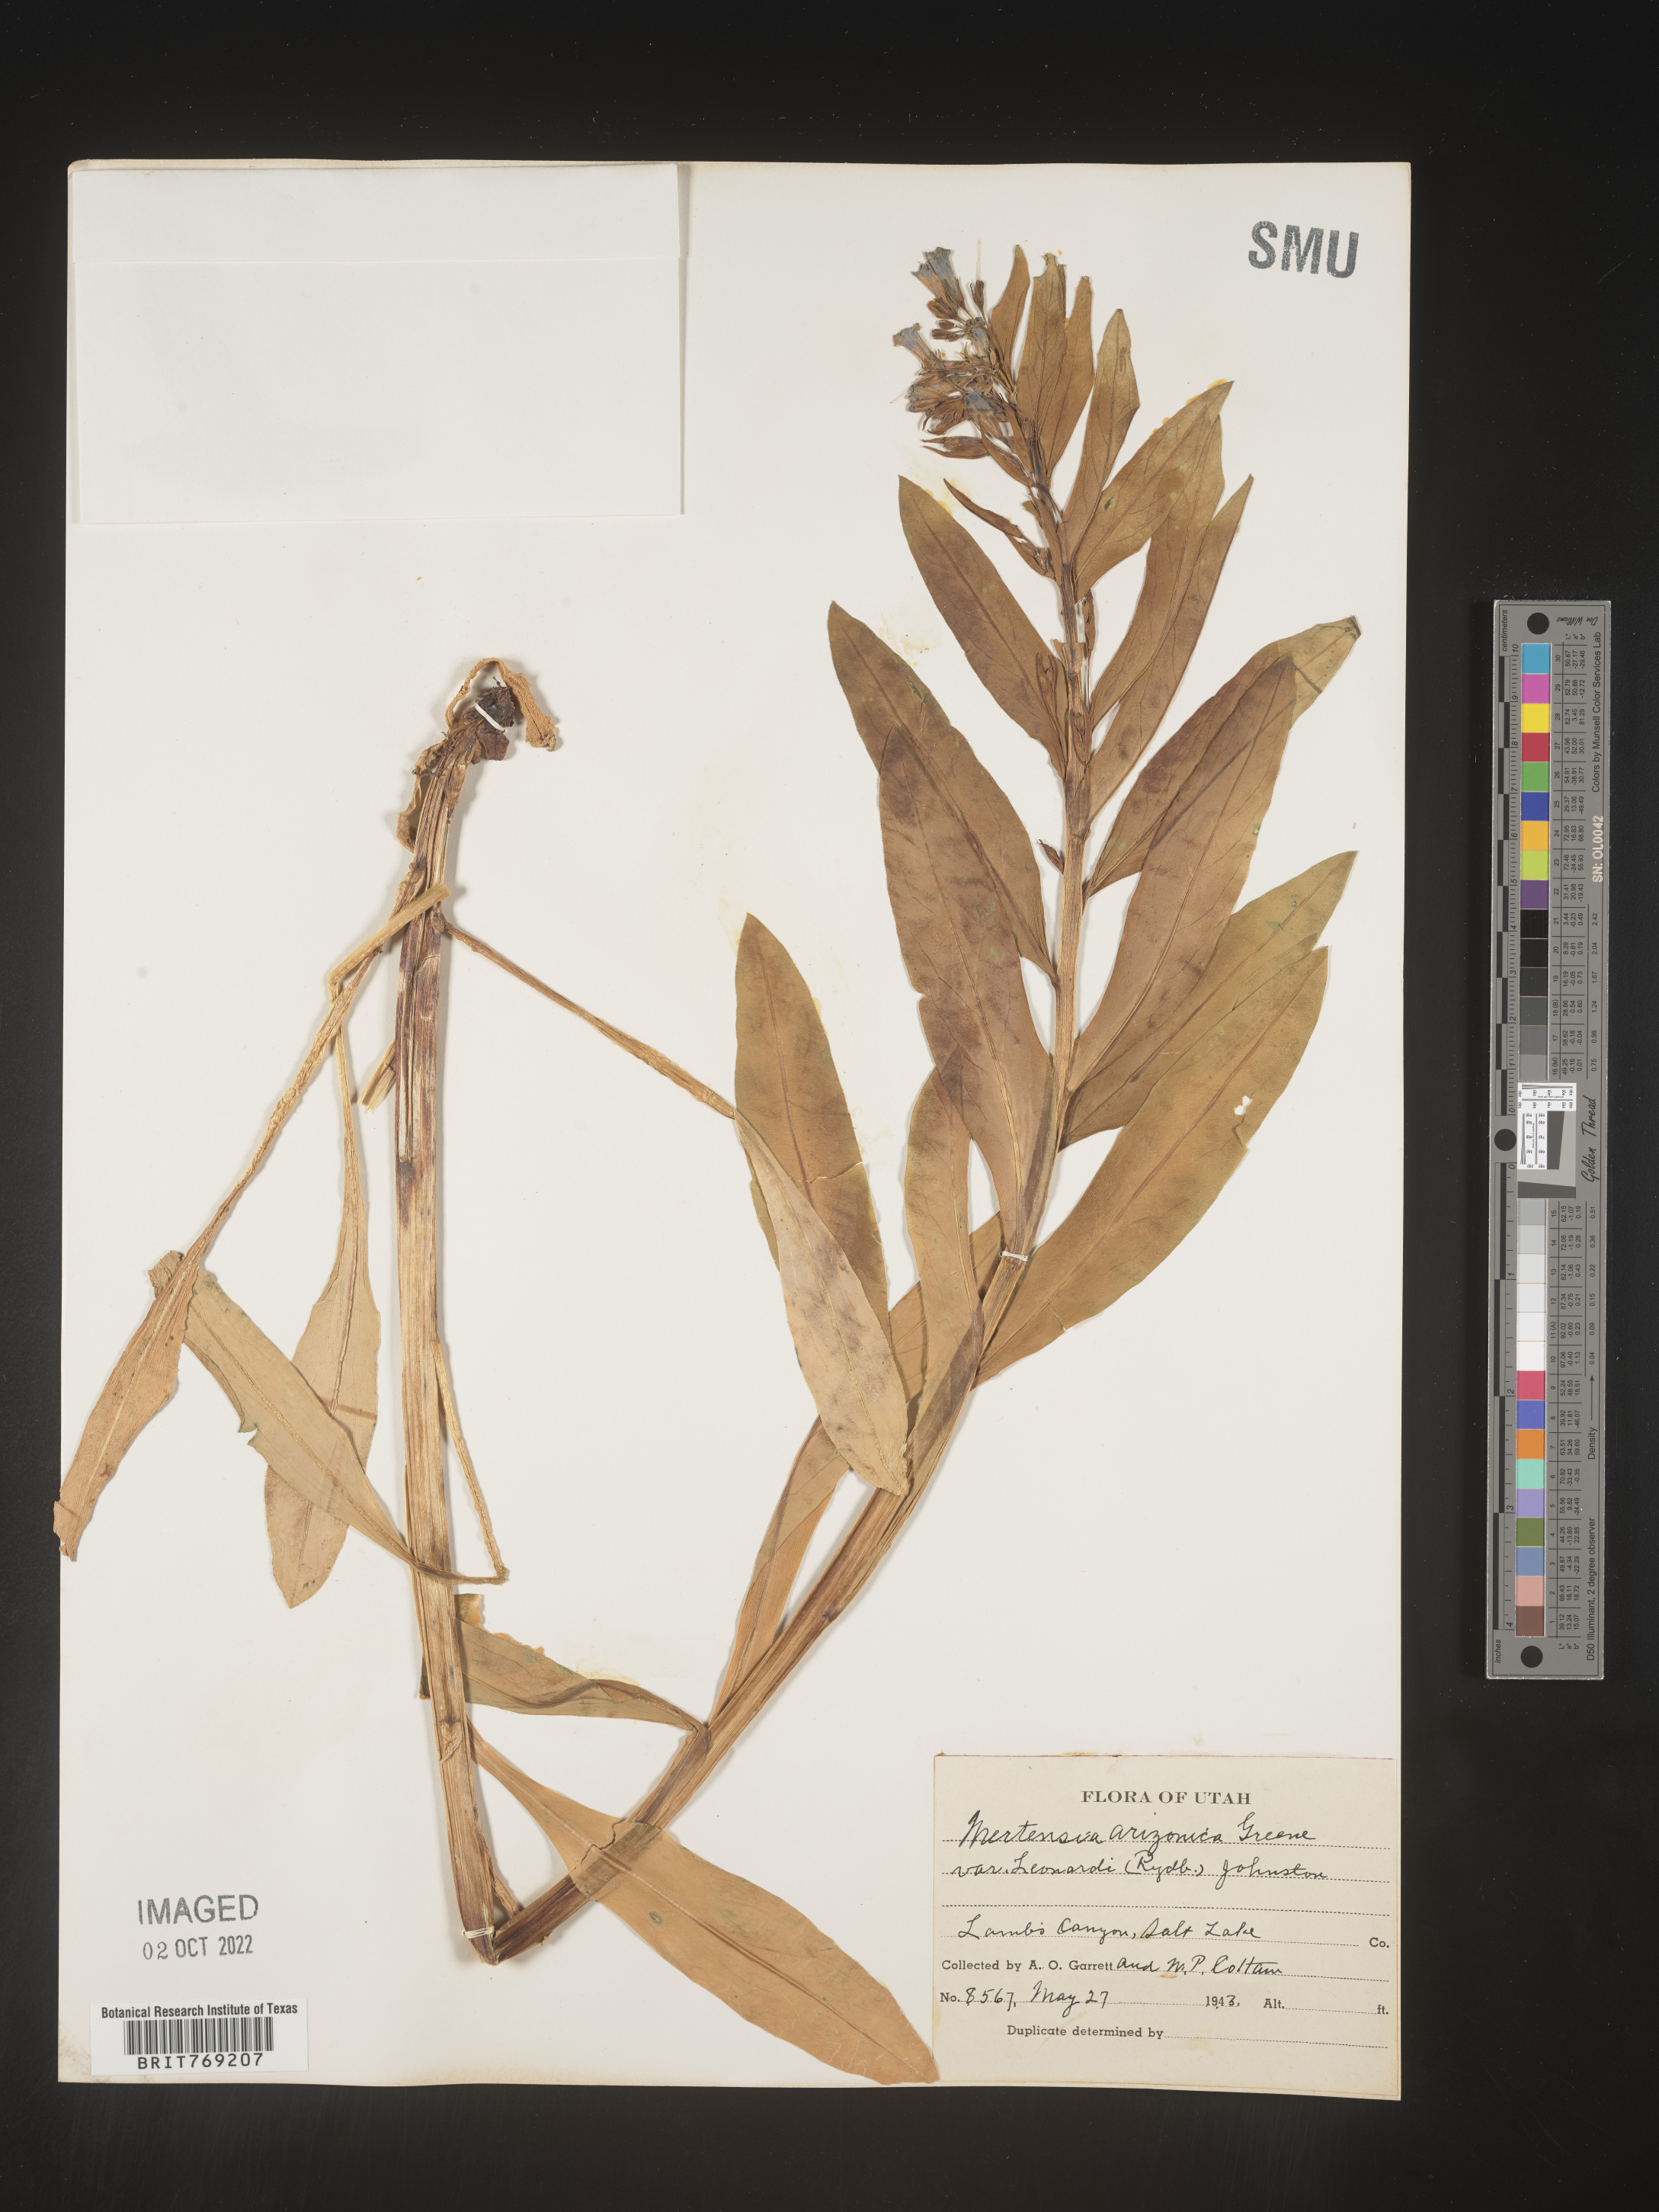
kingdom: Plantae
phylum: Tracheophyta
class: Magnoliopsida
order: Boraginales
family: Boraginaceae
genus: Mertensia
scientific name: Mertensia
